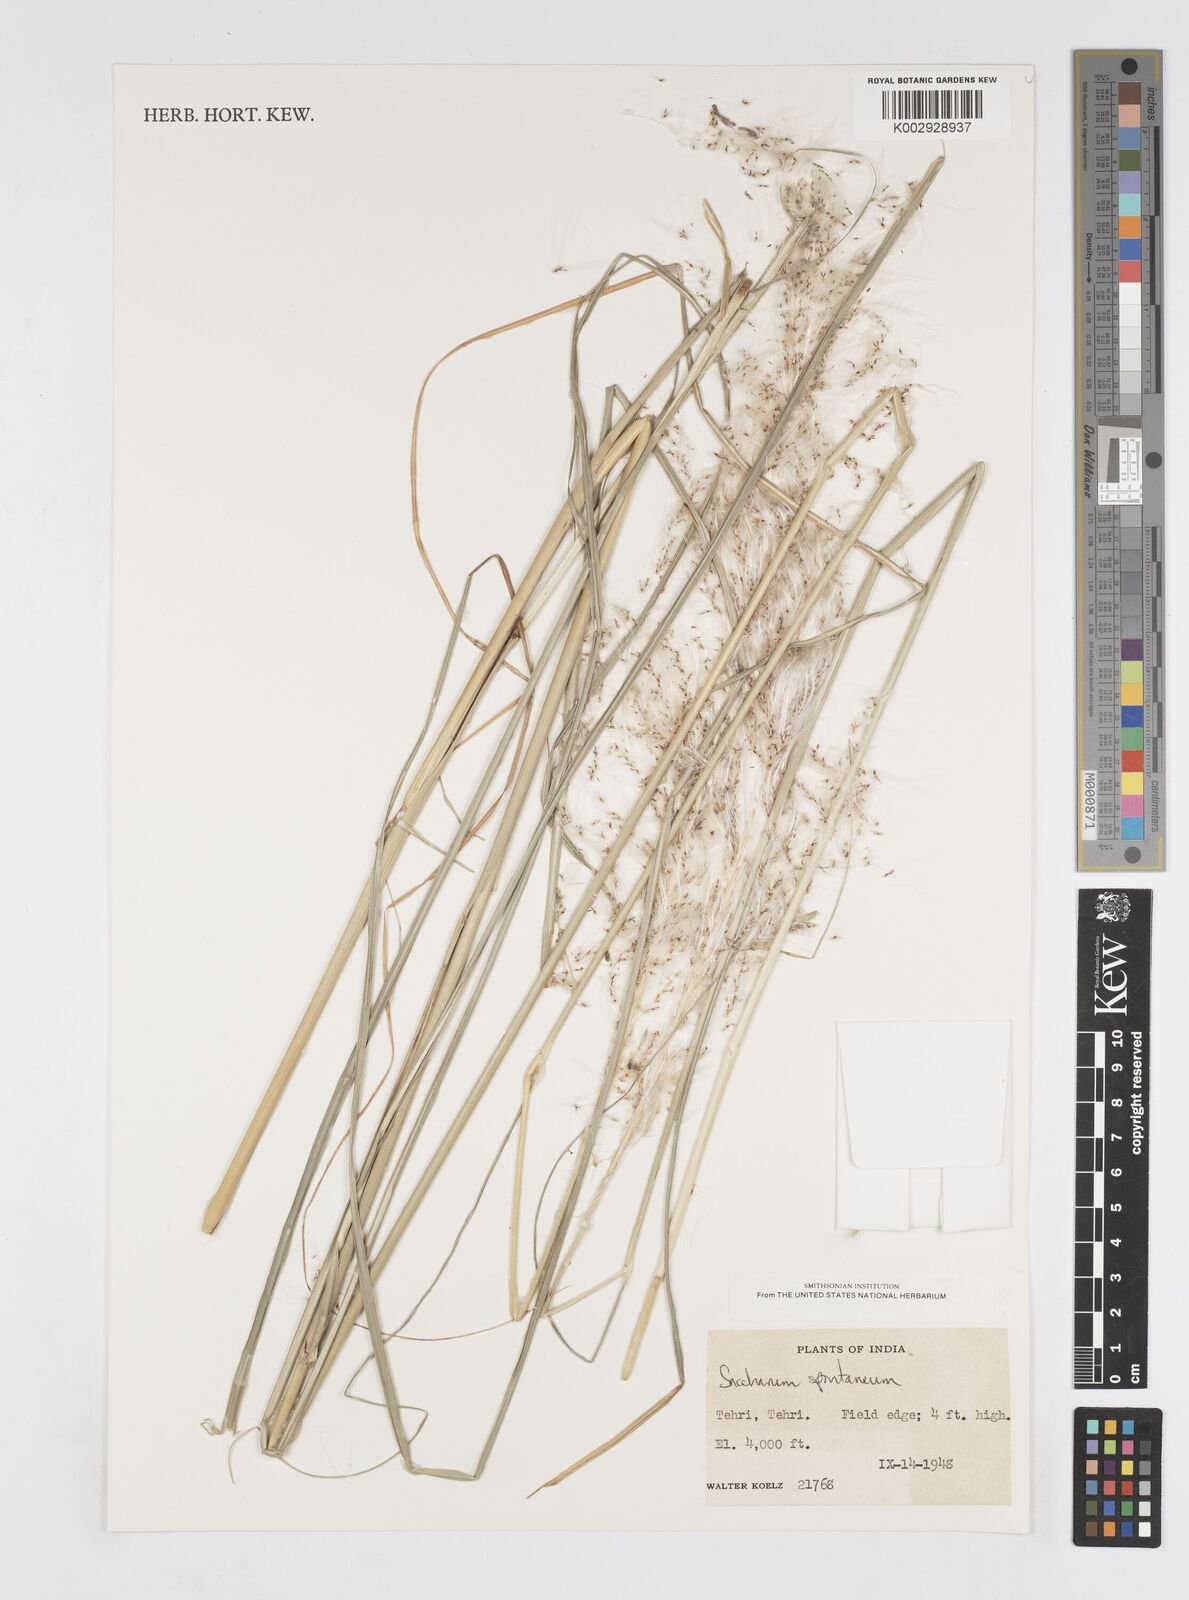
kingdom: Plantae
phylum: Tracheophyta
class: Liliopsida
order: Poales
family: Poaceae
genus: Saccharum
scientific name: Saccharum spontaneum
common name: Wild sugarcane
